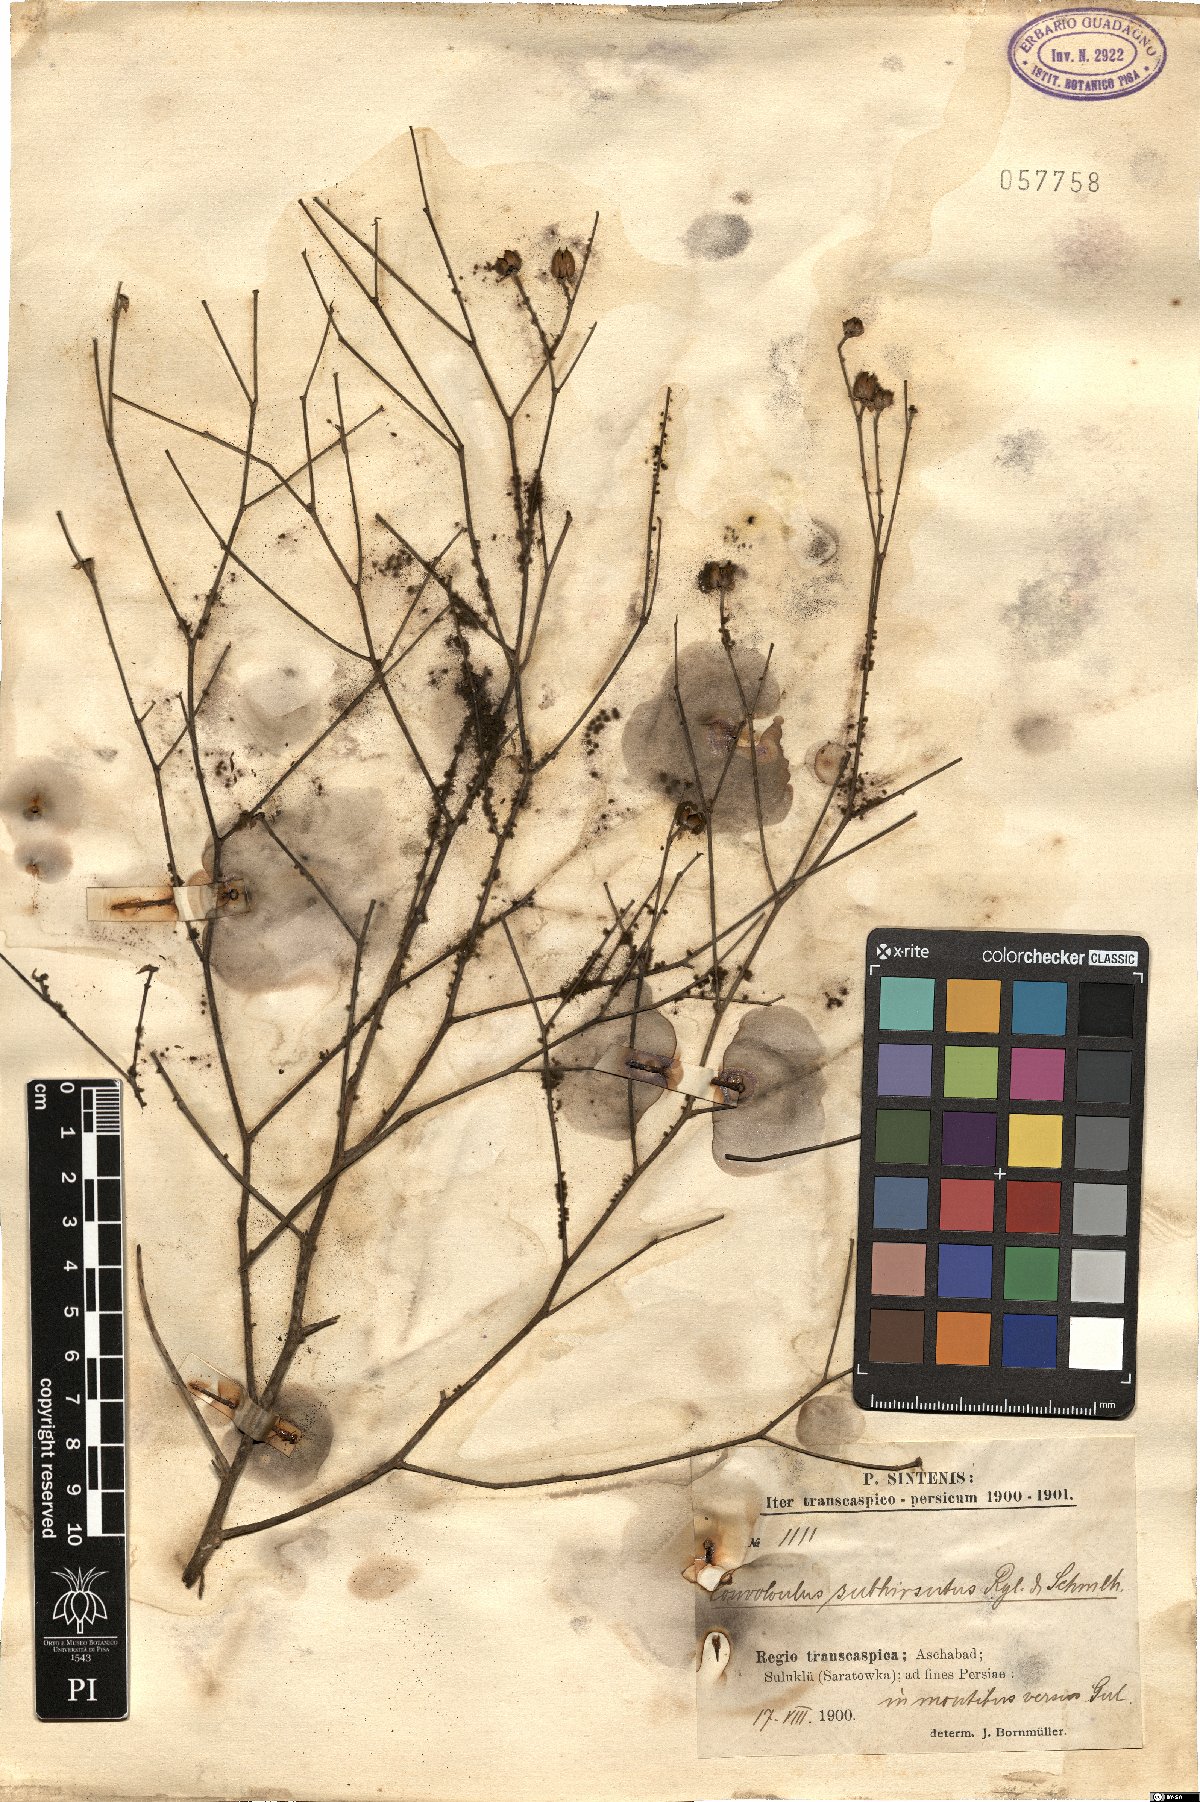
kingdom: Plantae
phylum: Tracheophyta
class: Magnoliopsida
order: Solanales
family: Convolvulaceae
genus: Convolvulus
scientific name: Convolvulus dorycnium
